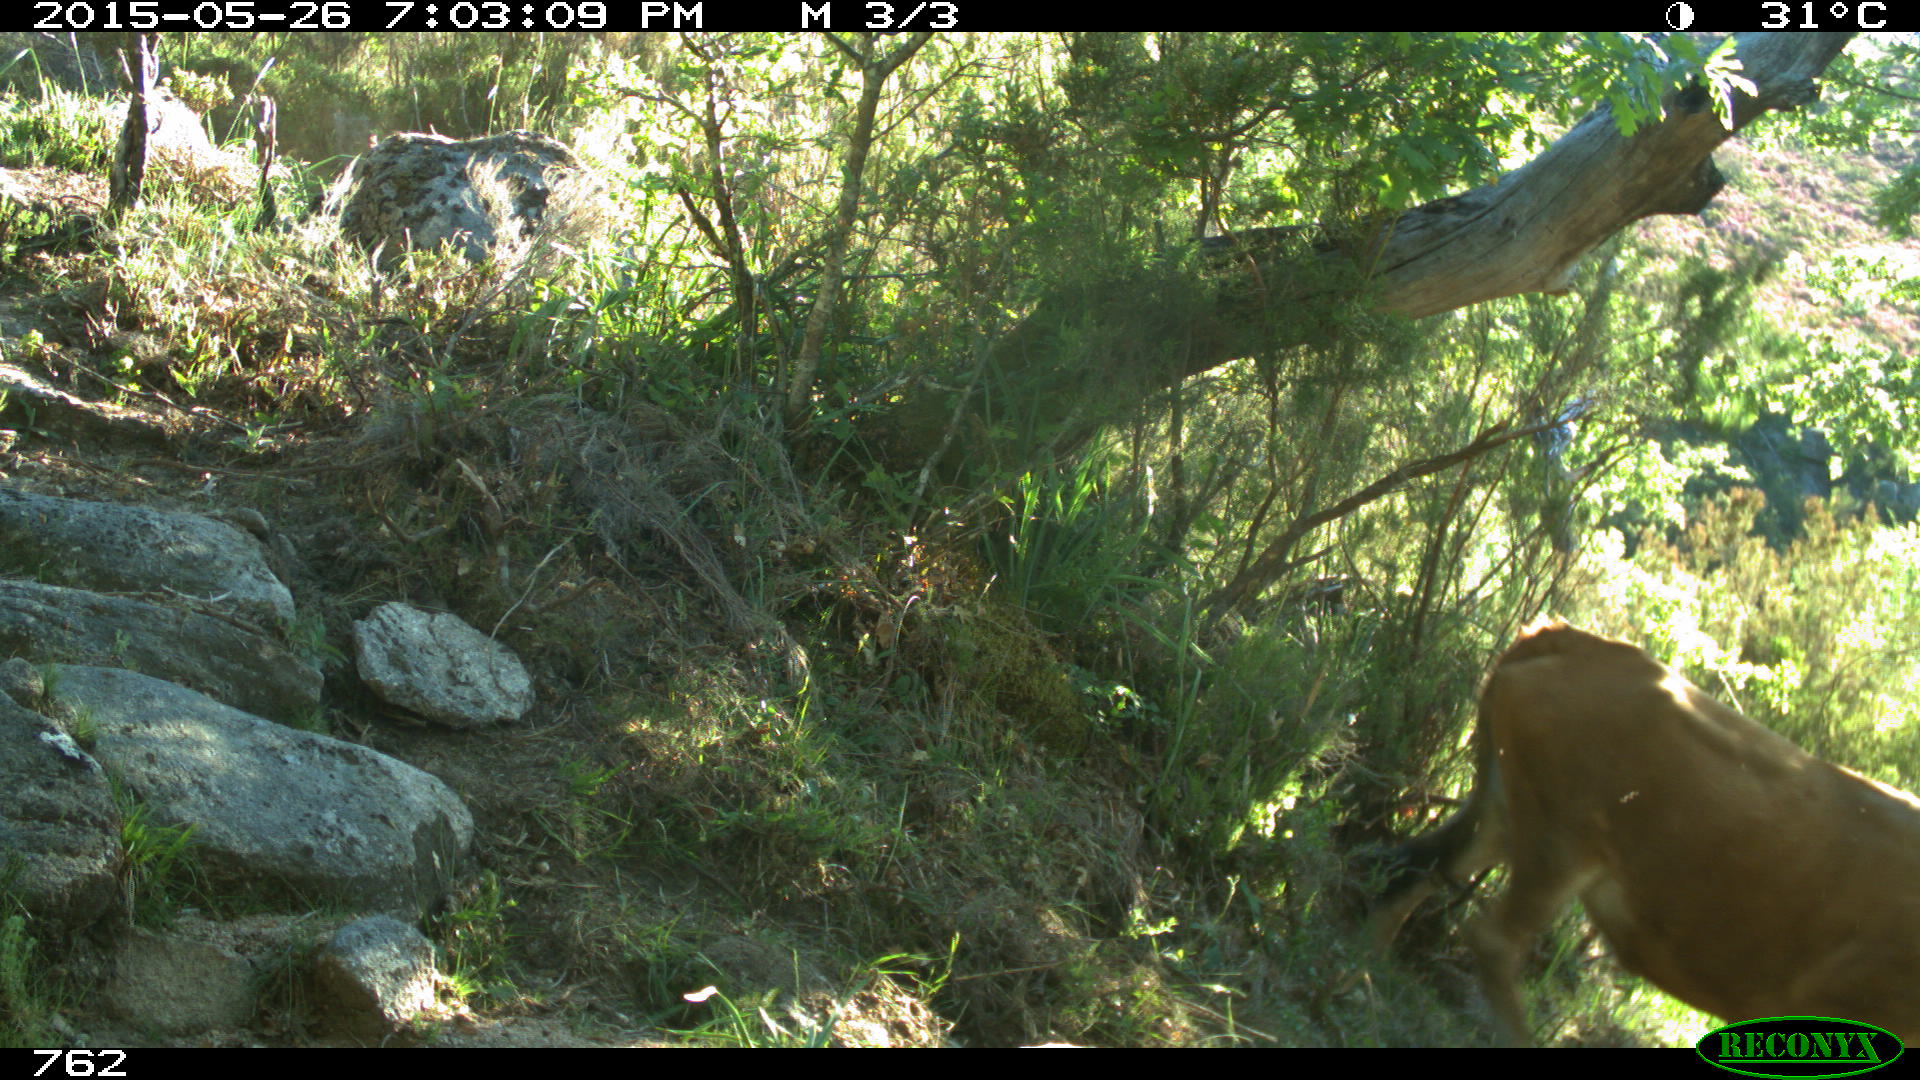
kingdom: Animalia
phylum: Chordata
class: Mammalia
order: Artiodactyla
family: Bovidae
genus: Bos
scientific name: Bos taurus
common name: Domesticated cattle
